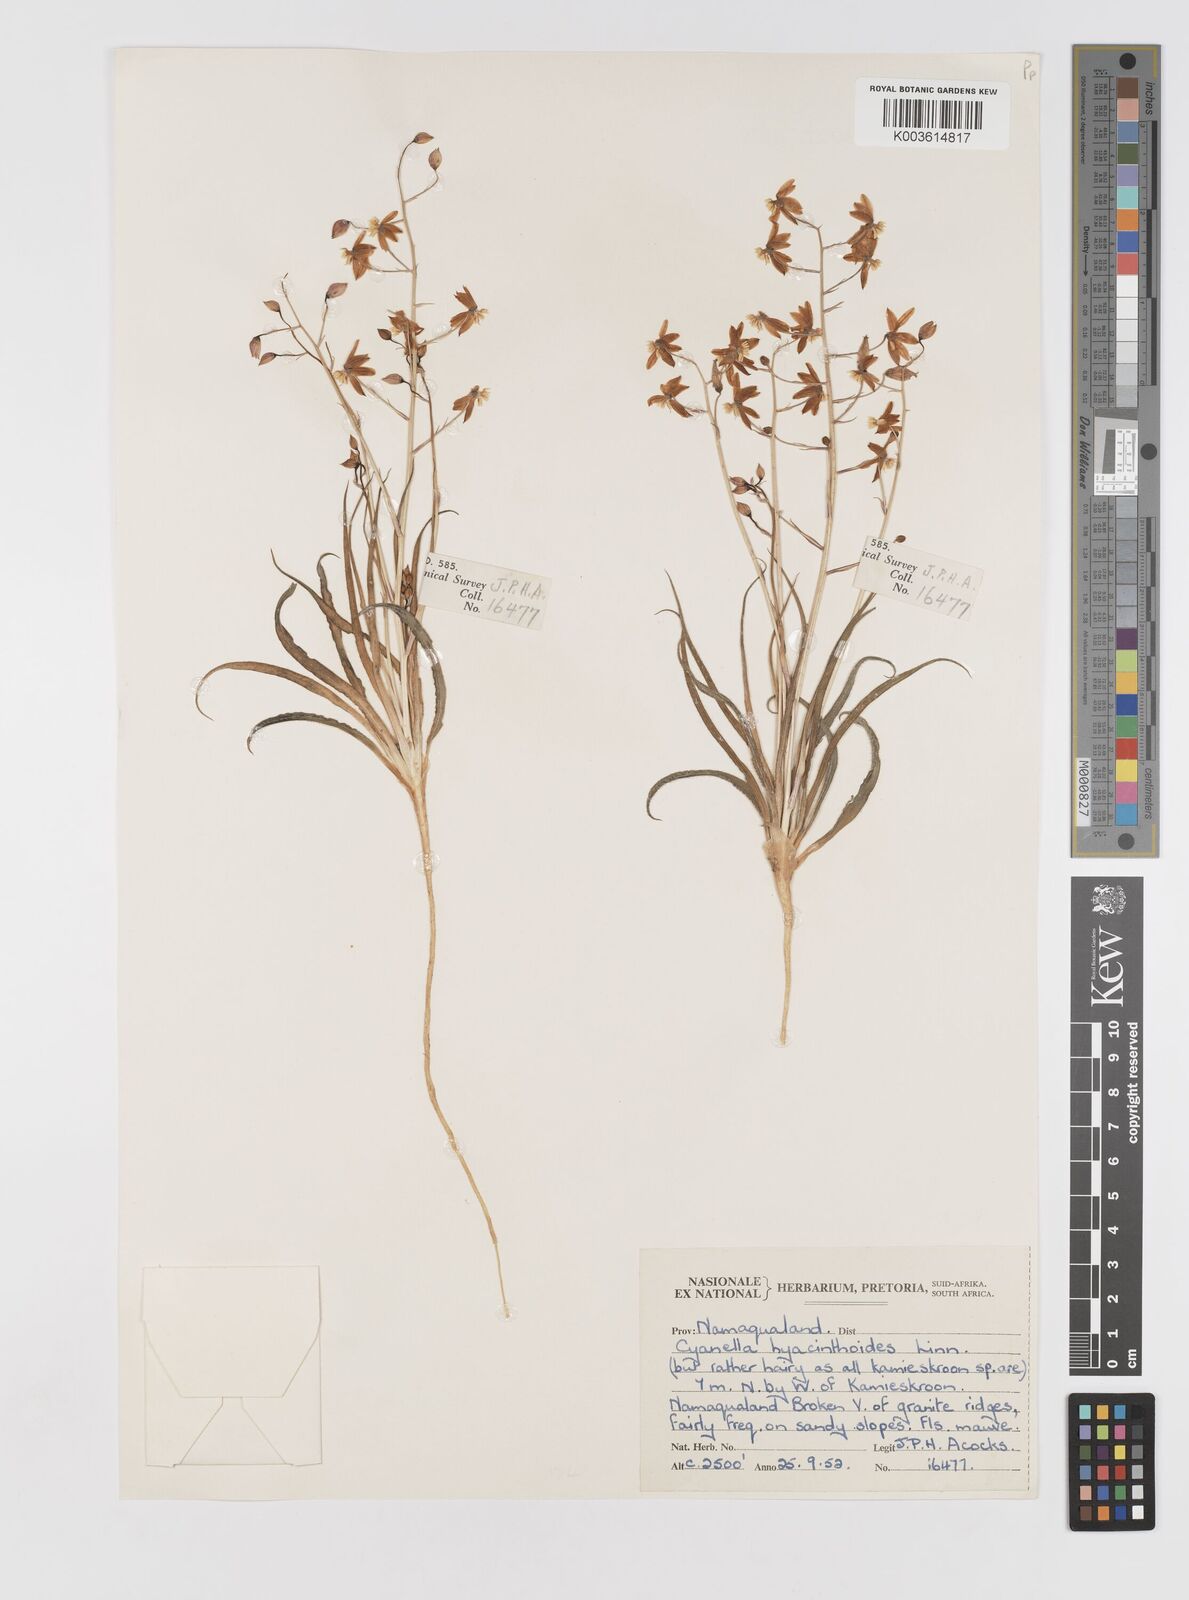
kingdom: Plantae
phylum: Tracheophyta
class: Liliopsida
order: Asparagales
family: Tecophilaeaceae
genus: Cyanella
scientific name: Cyanella hyacinthoides
